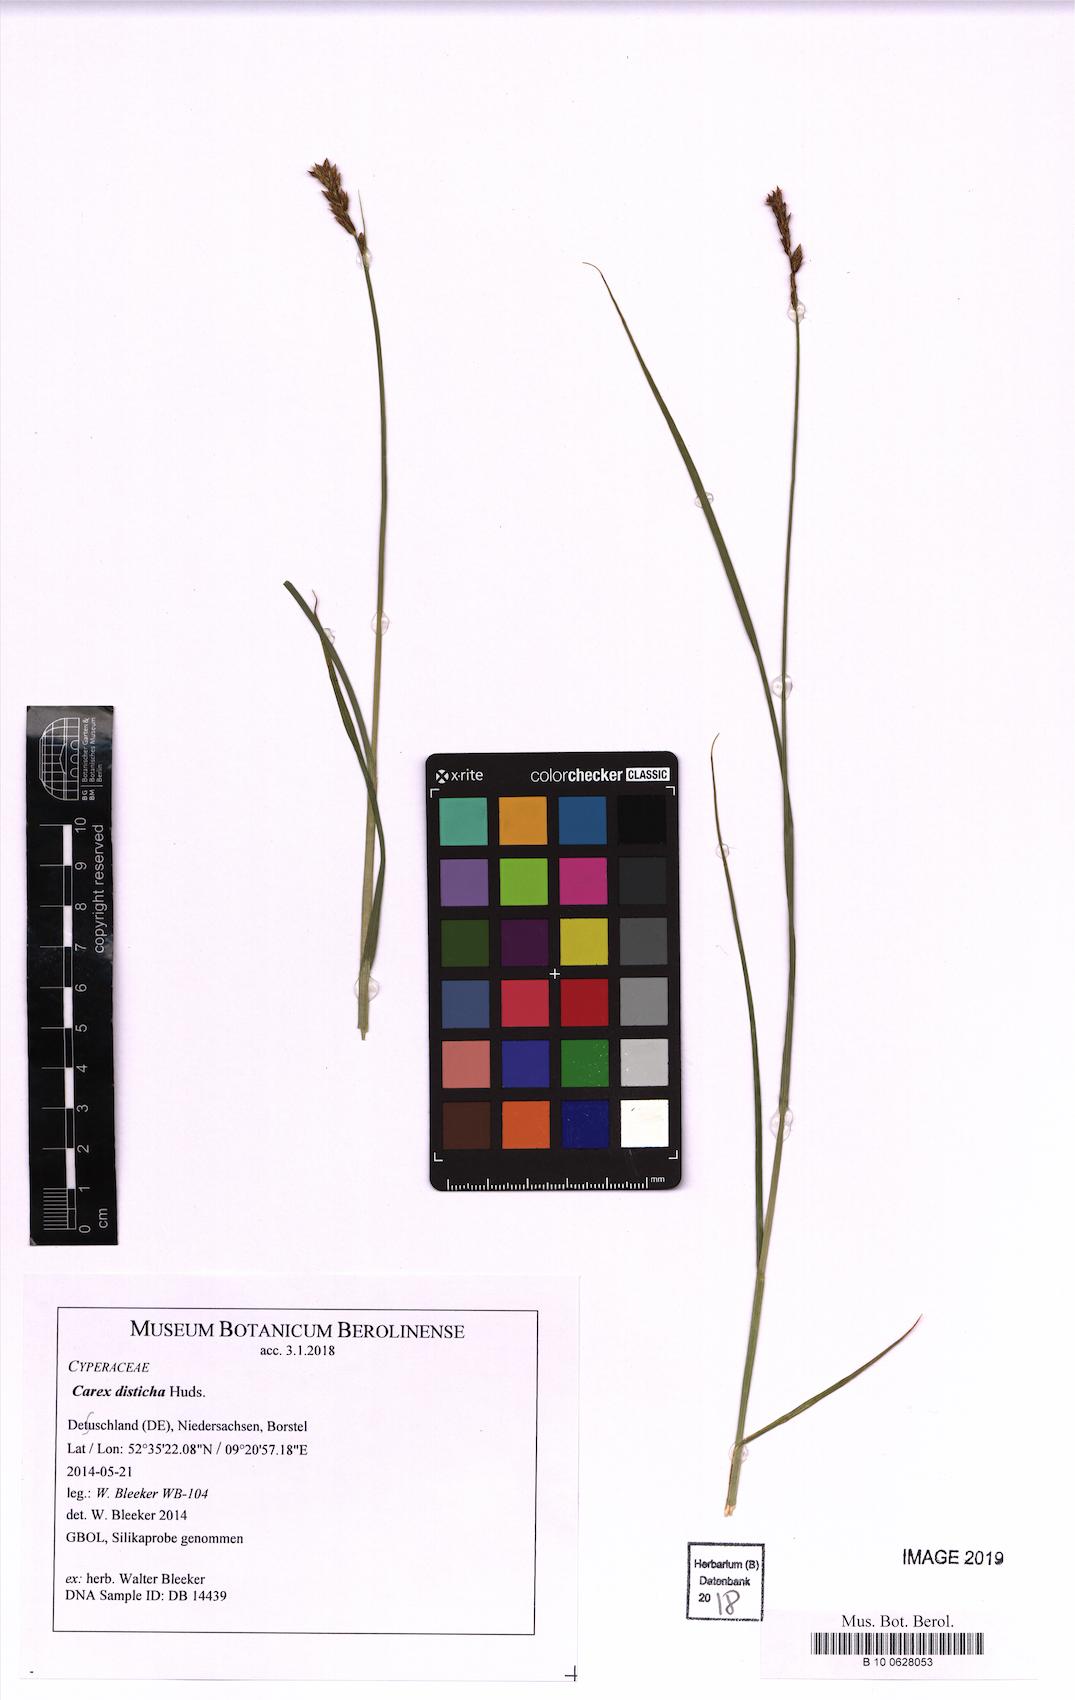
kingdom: Plantae
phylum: Tracheophyta
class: Liliopsida
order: Poales
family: Cyperaceae
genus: Carex
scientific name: Carex disticha
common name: Brown sedge
